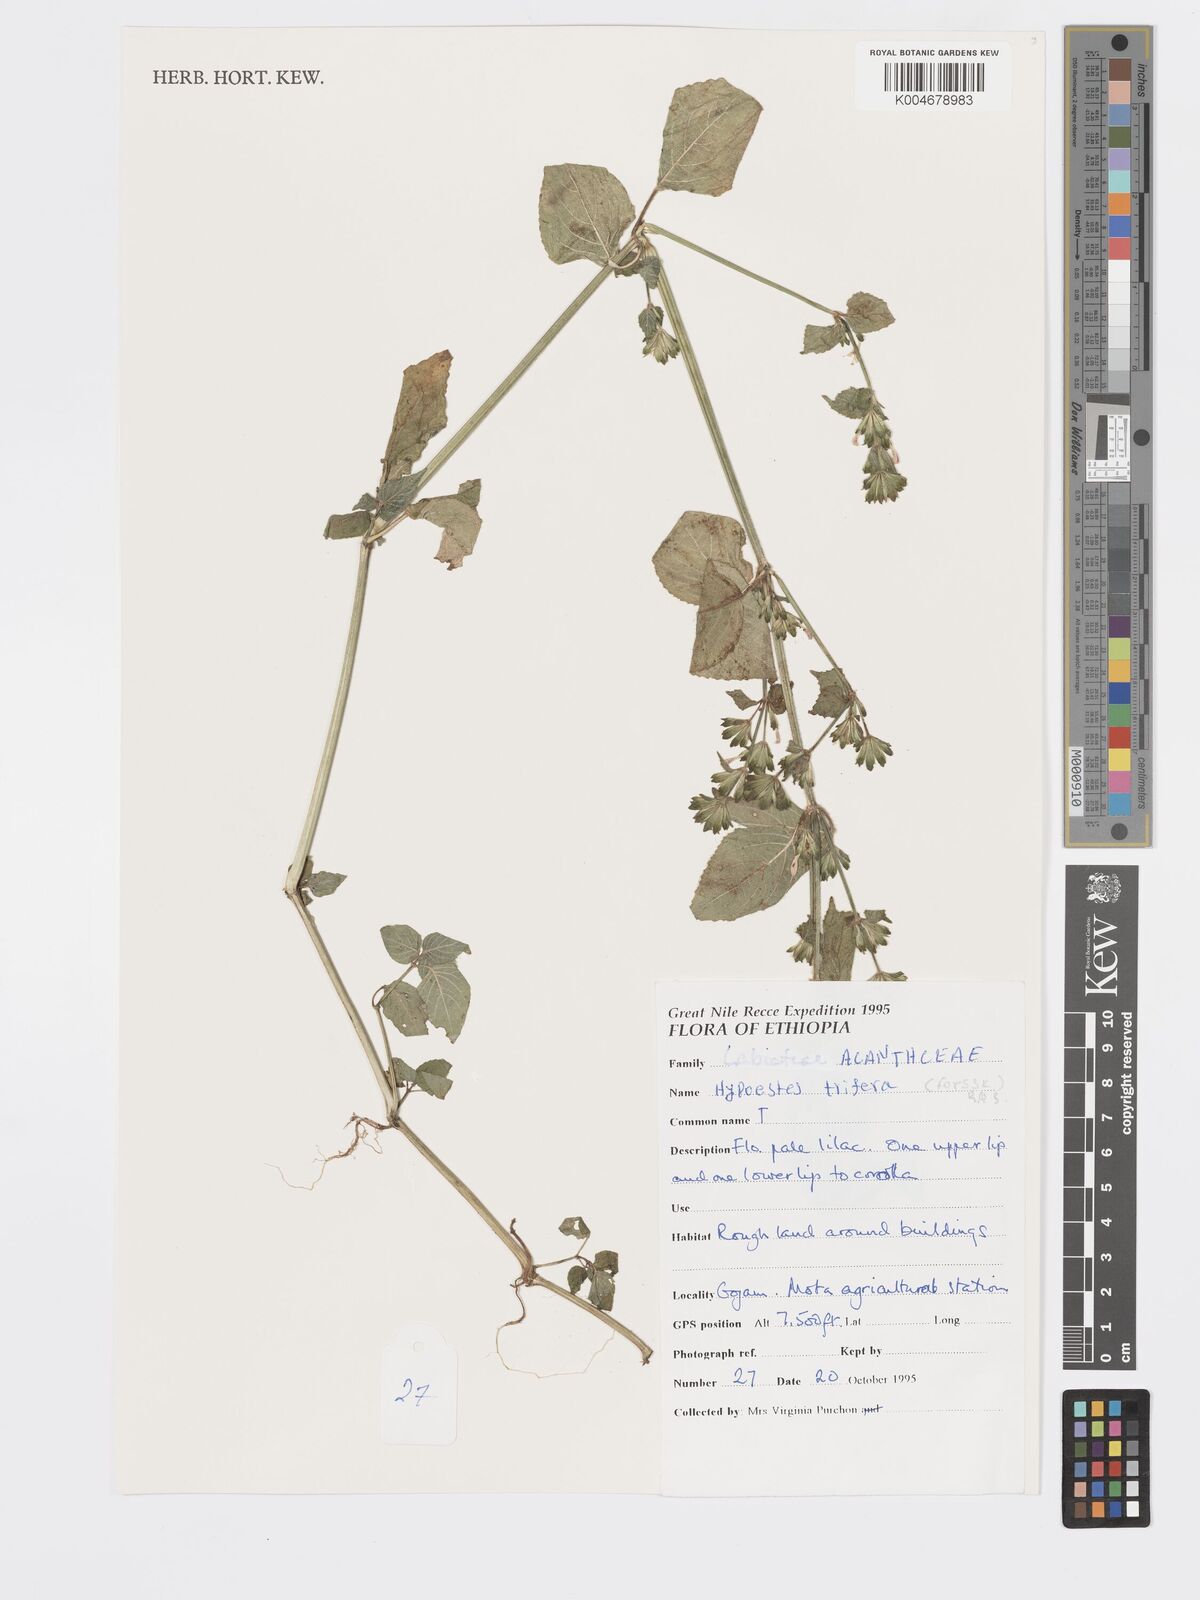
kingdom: Plantae
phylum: Tracheophyta
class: Magnoliopsida
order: Lamiales
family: Acanthaceae
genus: Hypoestes
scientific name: Hypoestes triflora
